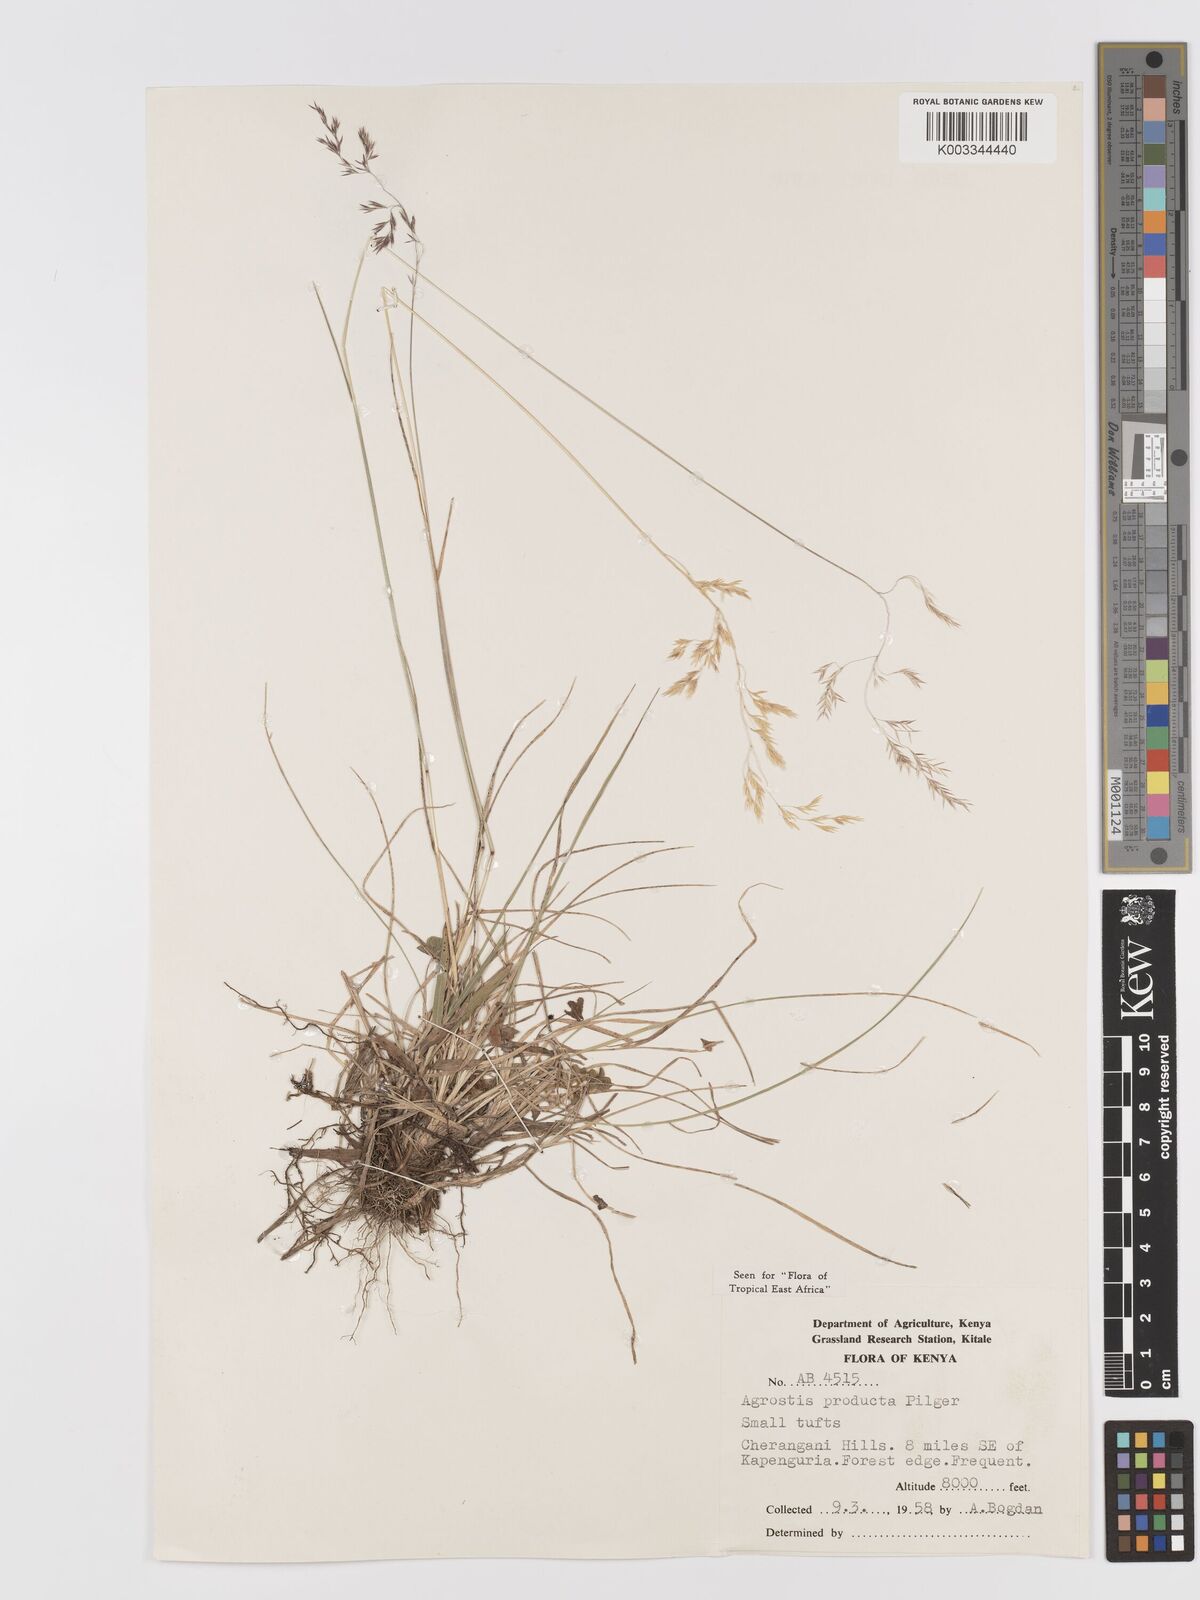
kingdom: Plantae
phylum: Tracheophyta
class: Liliopsida
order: Poales
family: Poaceae
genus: Agrostis
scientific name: Agrostis producta
